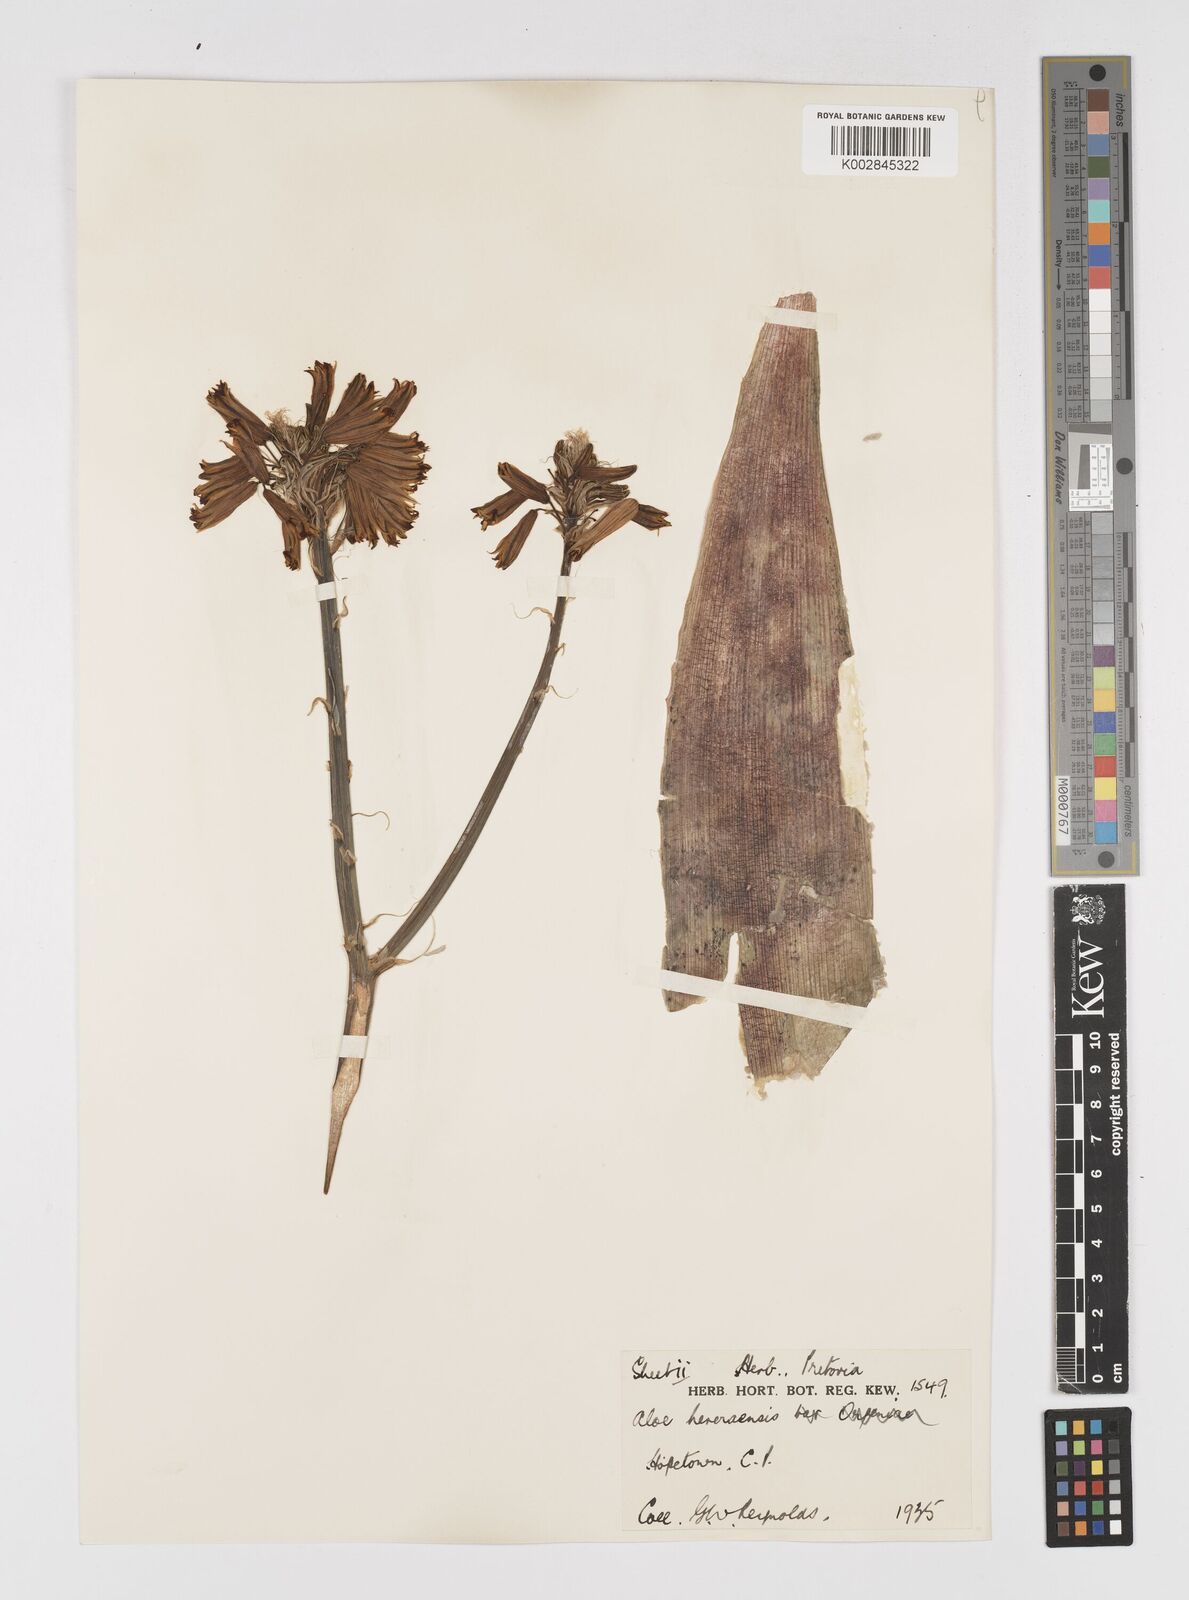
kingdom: Plantae
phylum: Tracheophyta
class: Liliopsida
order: Asparagales
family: Asphodelaceae
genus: Aloe
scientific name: Aloe hereroensis
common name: Herero aloe
